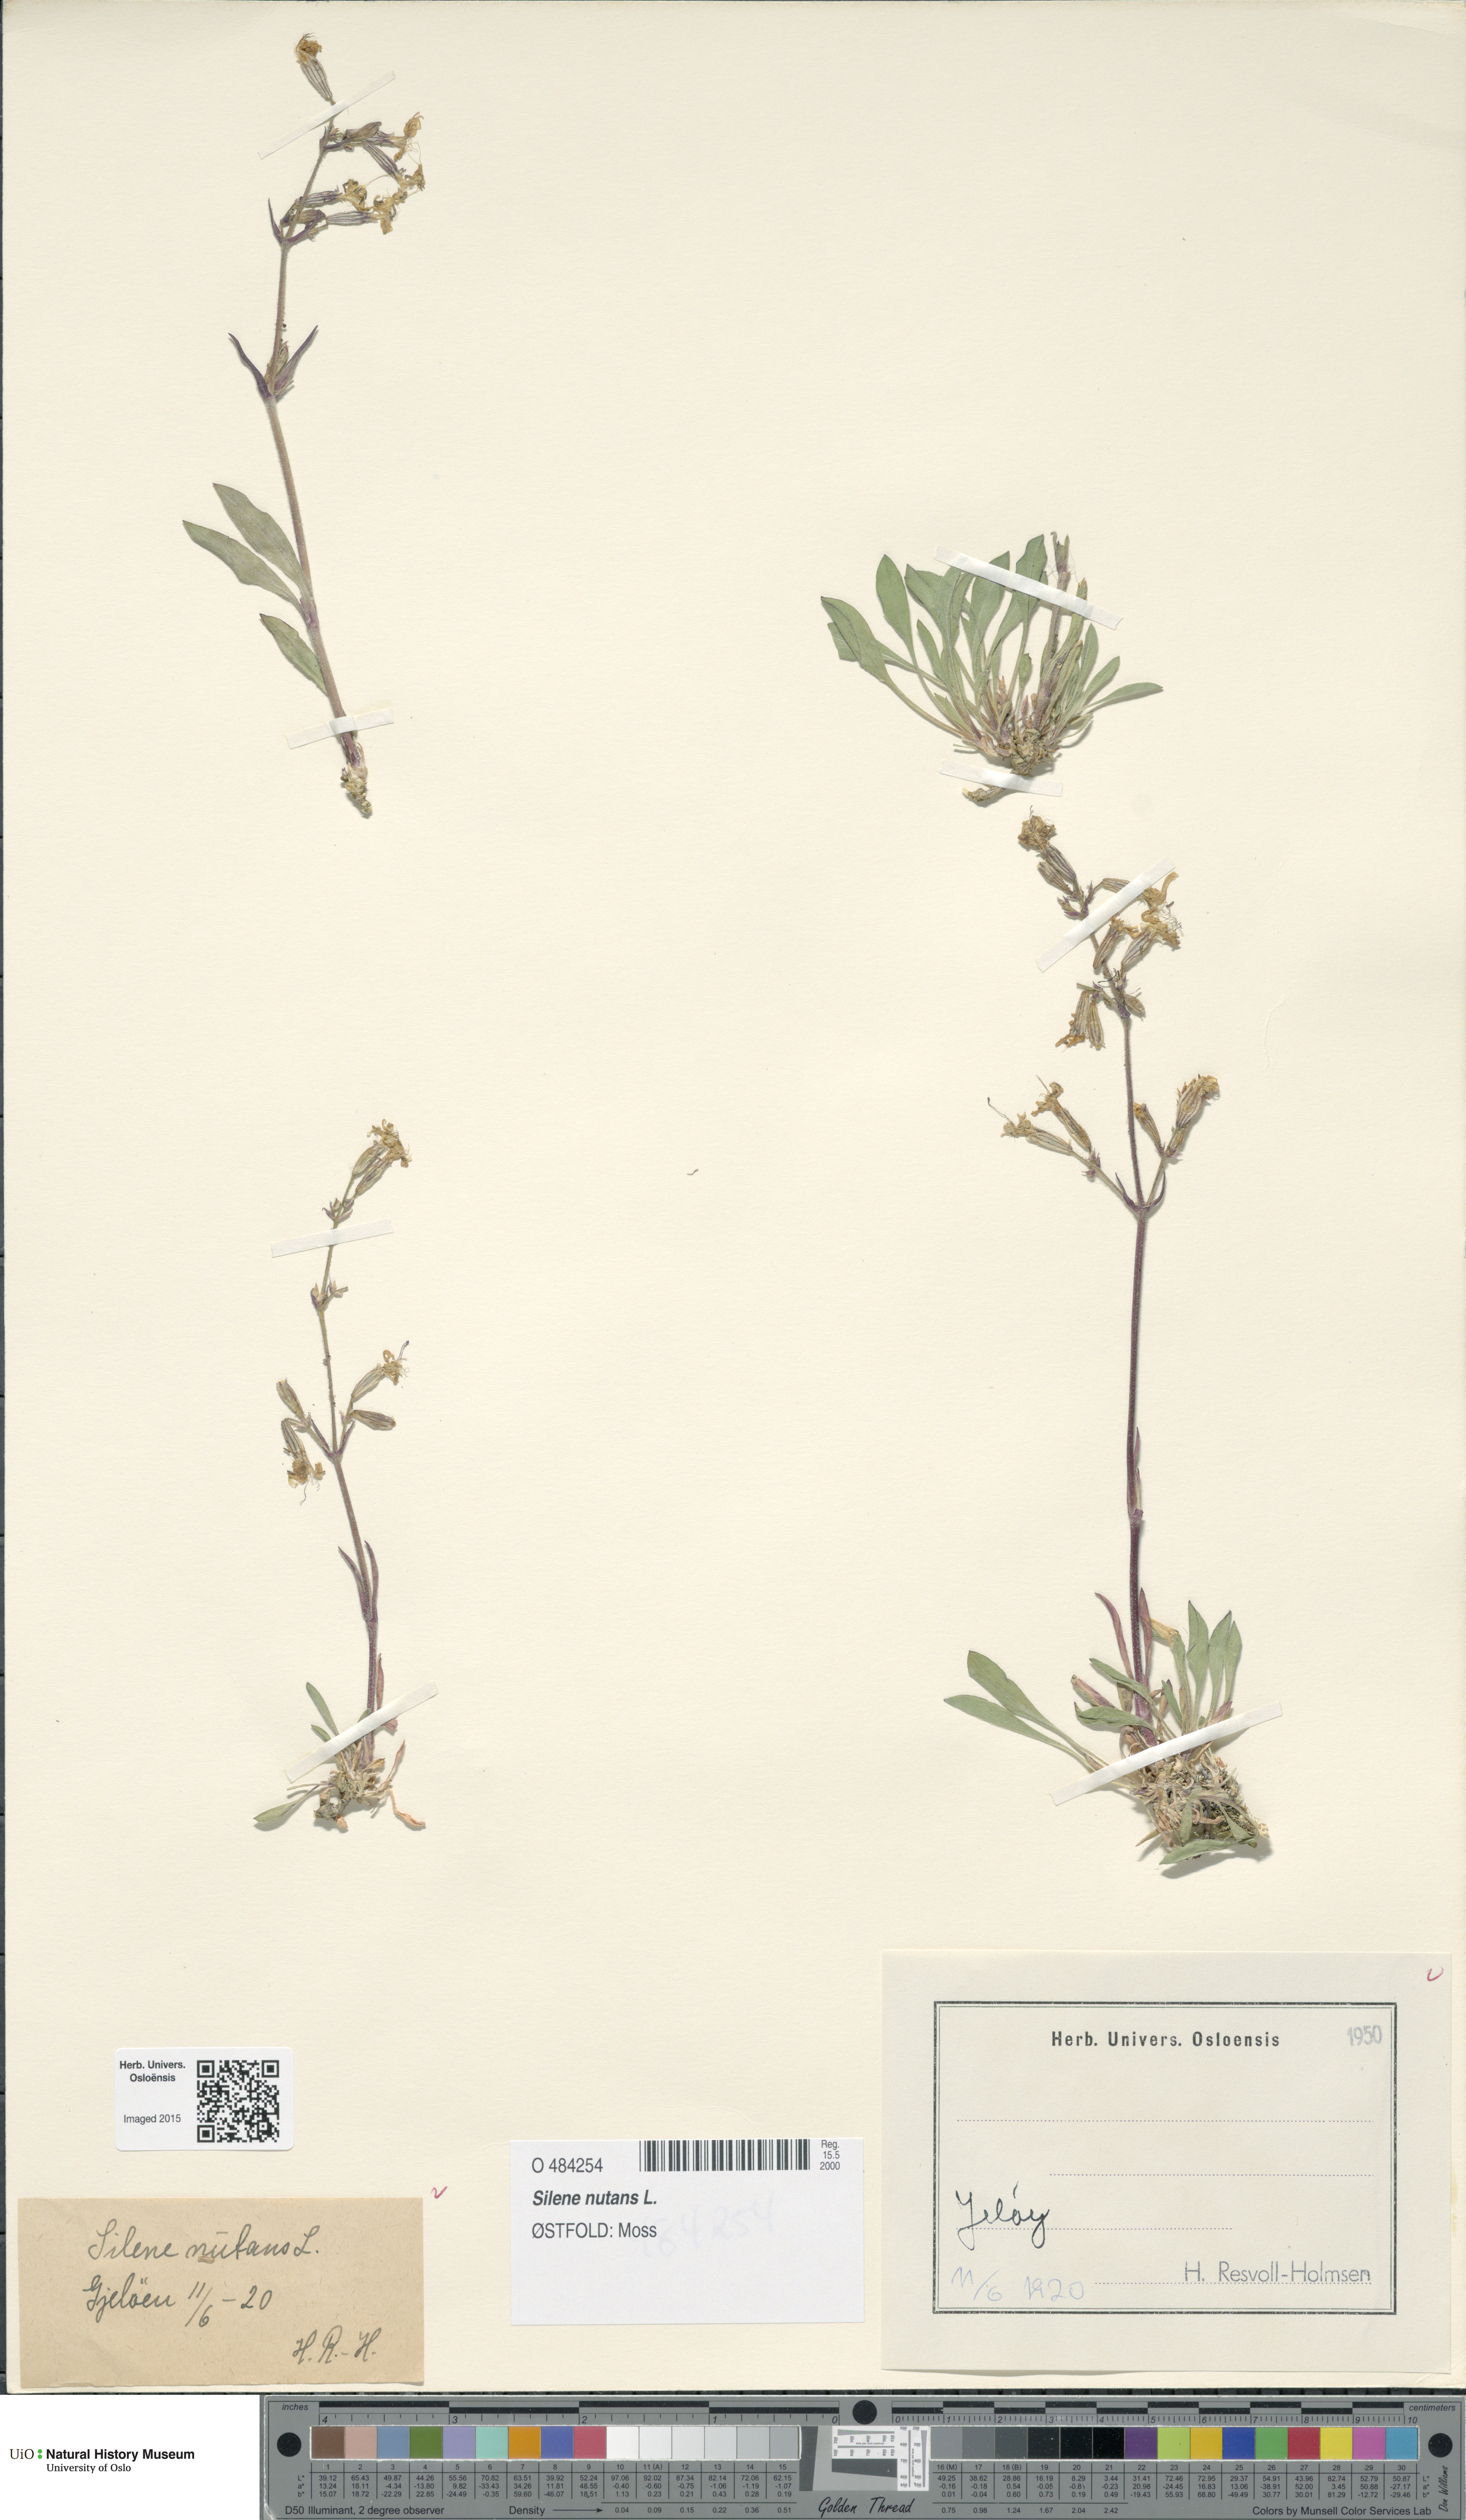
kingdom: Plantae
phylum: Tracheophyta
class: Magnoliopsida
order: Caryophyllales
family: Caryophyllaceae
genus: Silene
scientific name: Silene nutans
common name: Nottingham catchfly
